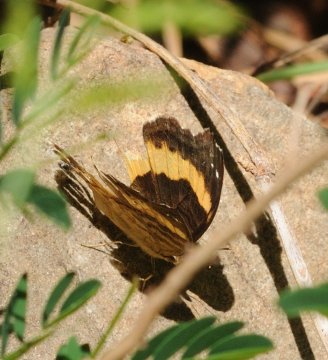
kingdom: Animalia
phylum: Arthropoda
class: Insecta
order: Lepidoptera
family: Nymphalidae
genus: Junonia
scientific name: Junonia terea
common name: Soldier Pansy
